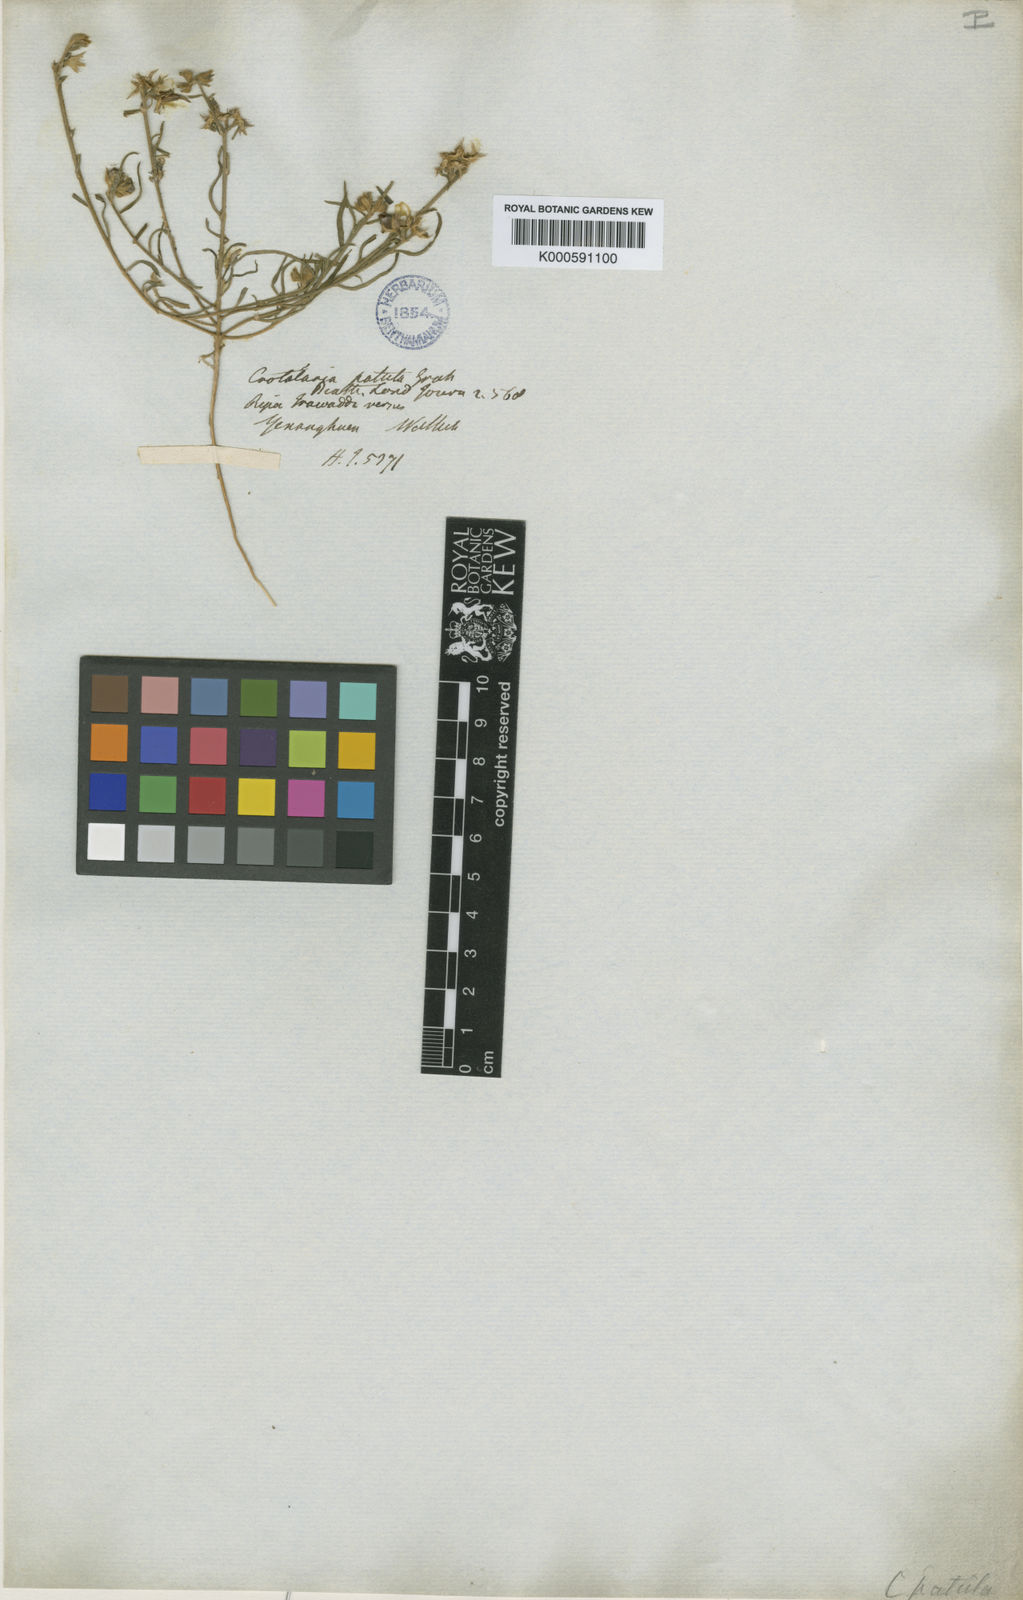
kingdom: Plantae
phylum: Tracheophyta
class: Magnoliopsida
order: Fabales
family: Fabaceae
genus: Crotalaria
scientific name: Crotalaria
